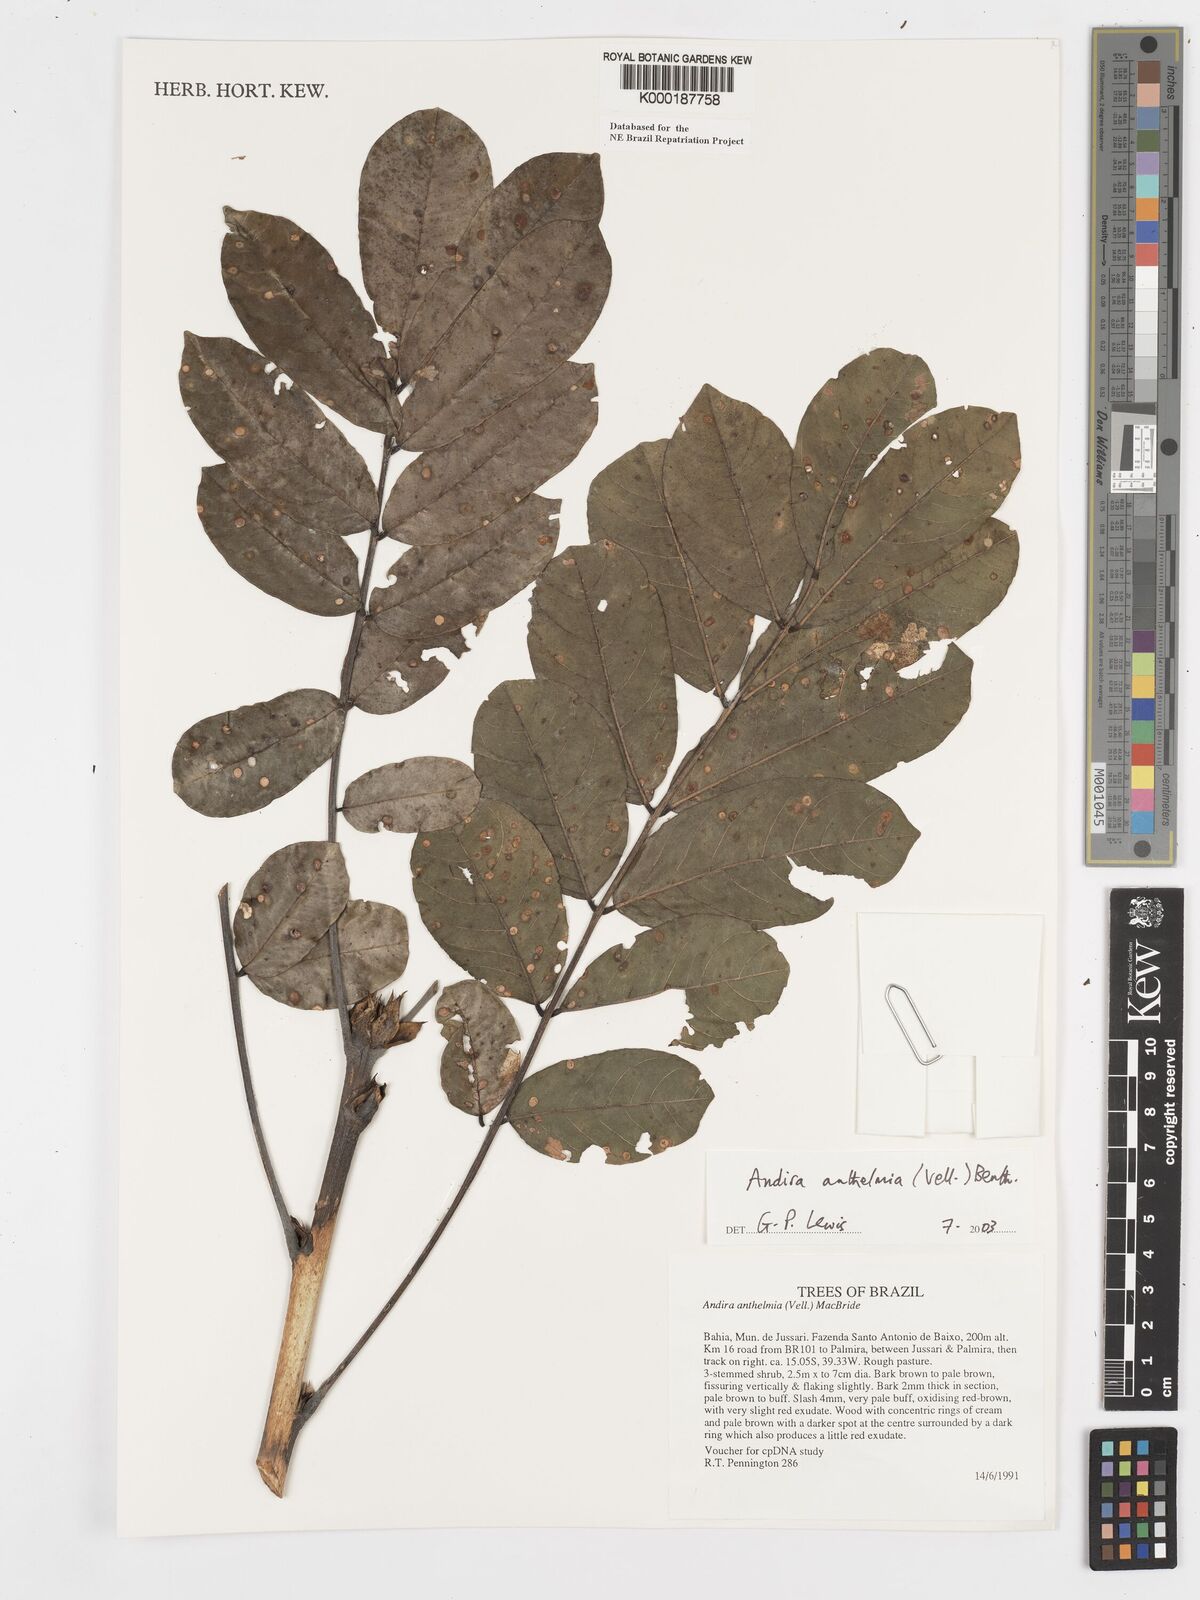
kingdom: Plantae
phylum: Tracheophyta
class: Magnoliopsida
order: Fabales
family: Fabaceae
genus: Andira
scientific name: Andira
